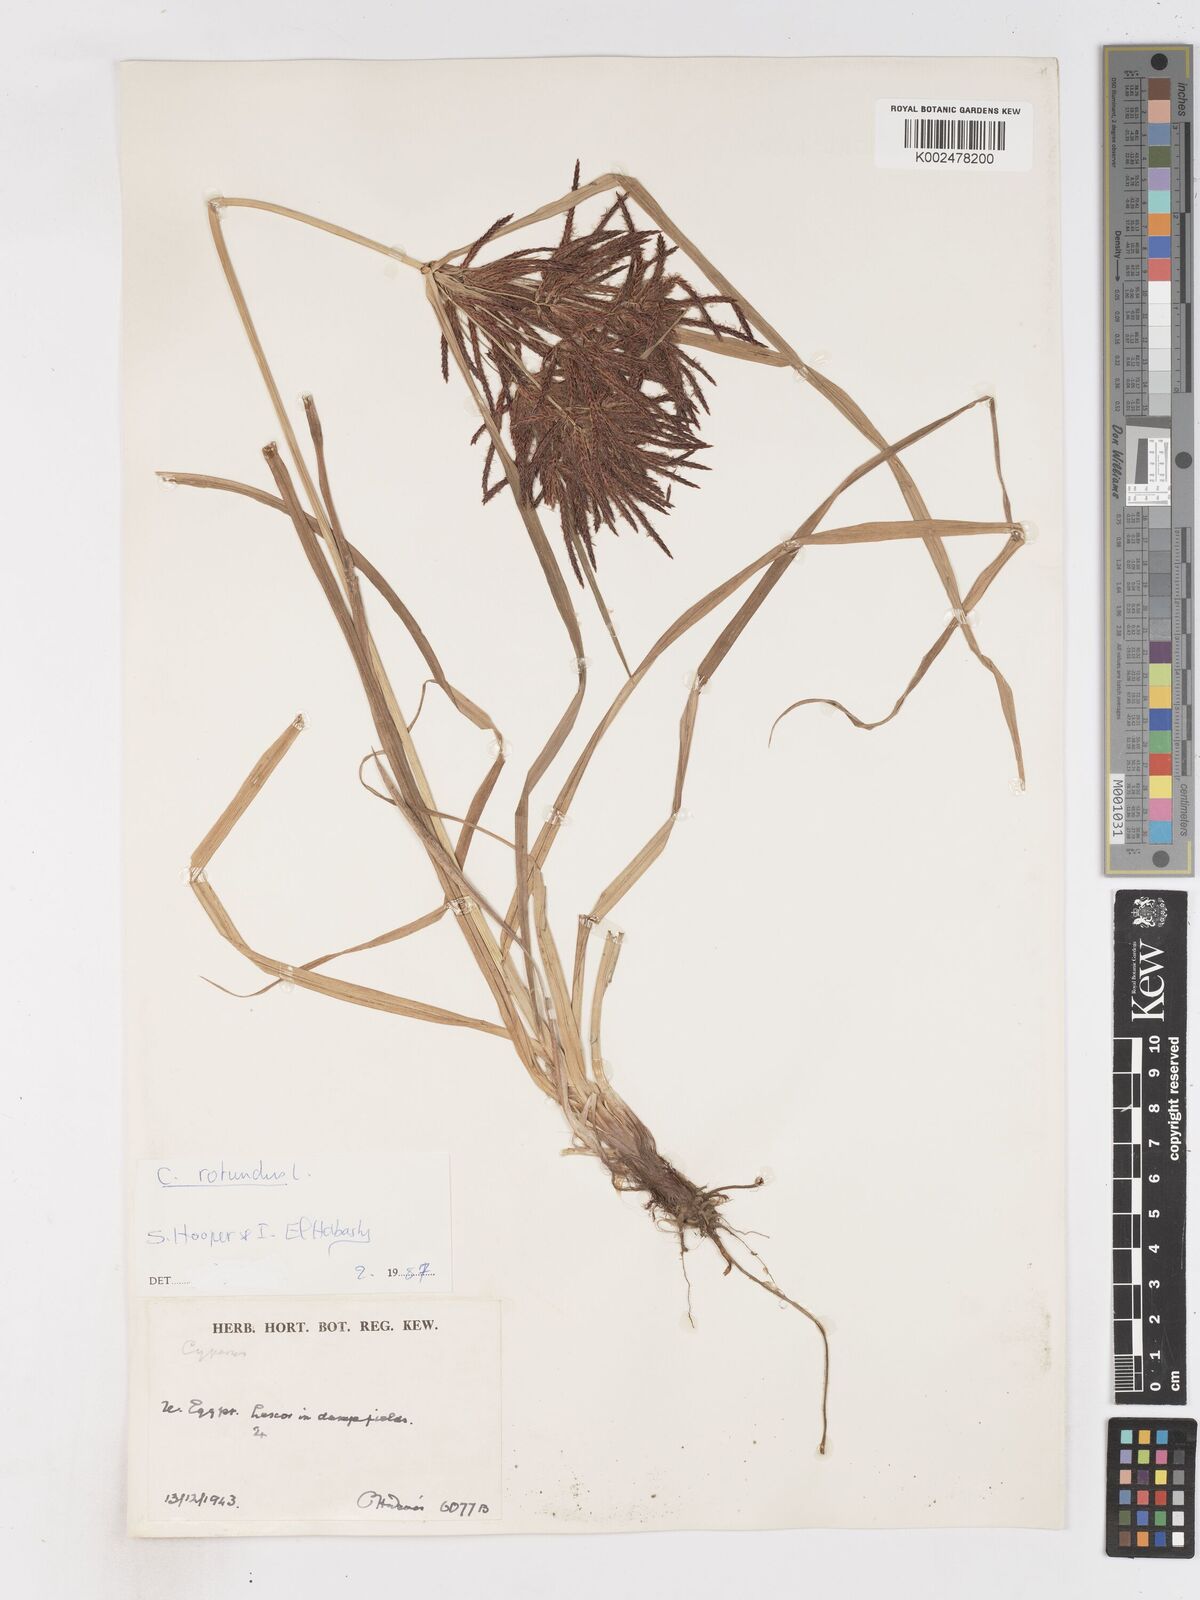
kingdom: Plantae
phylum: Tracheophyta
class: Liliopsida
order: Poales
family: Cyperaceae
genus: Cyperus
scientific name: Cyperus rotundus
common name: Nutgrass
